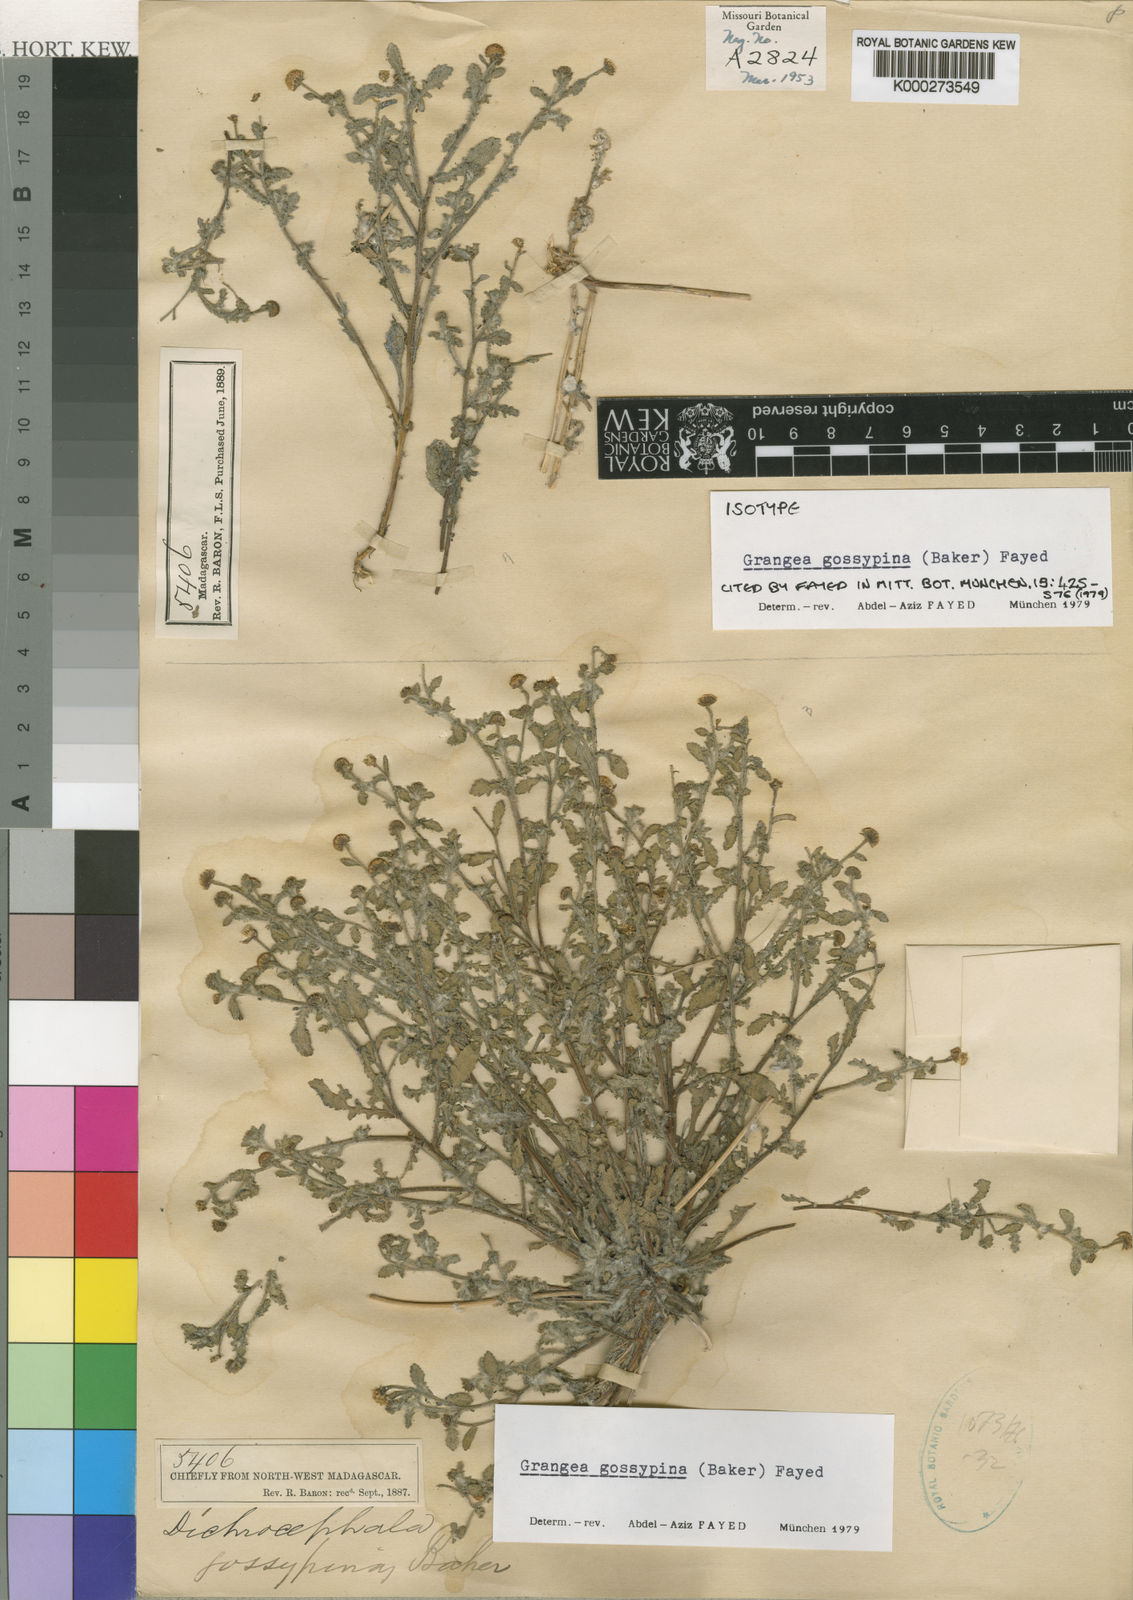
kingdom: Plantae
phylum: Tracheophyta
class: Magnoliopsida
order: Asterales
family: Asteraceae
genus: Grangea
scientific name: Grangea gossypina
